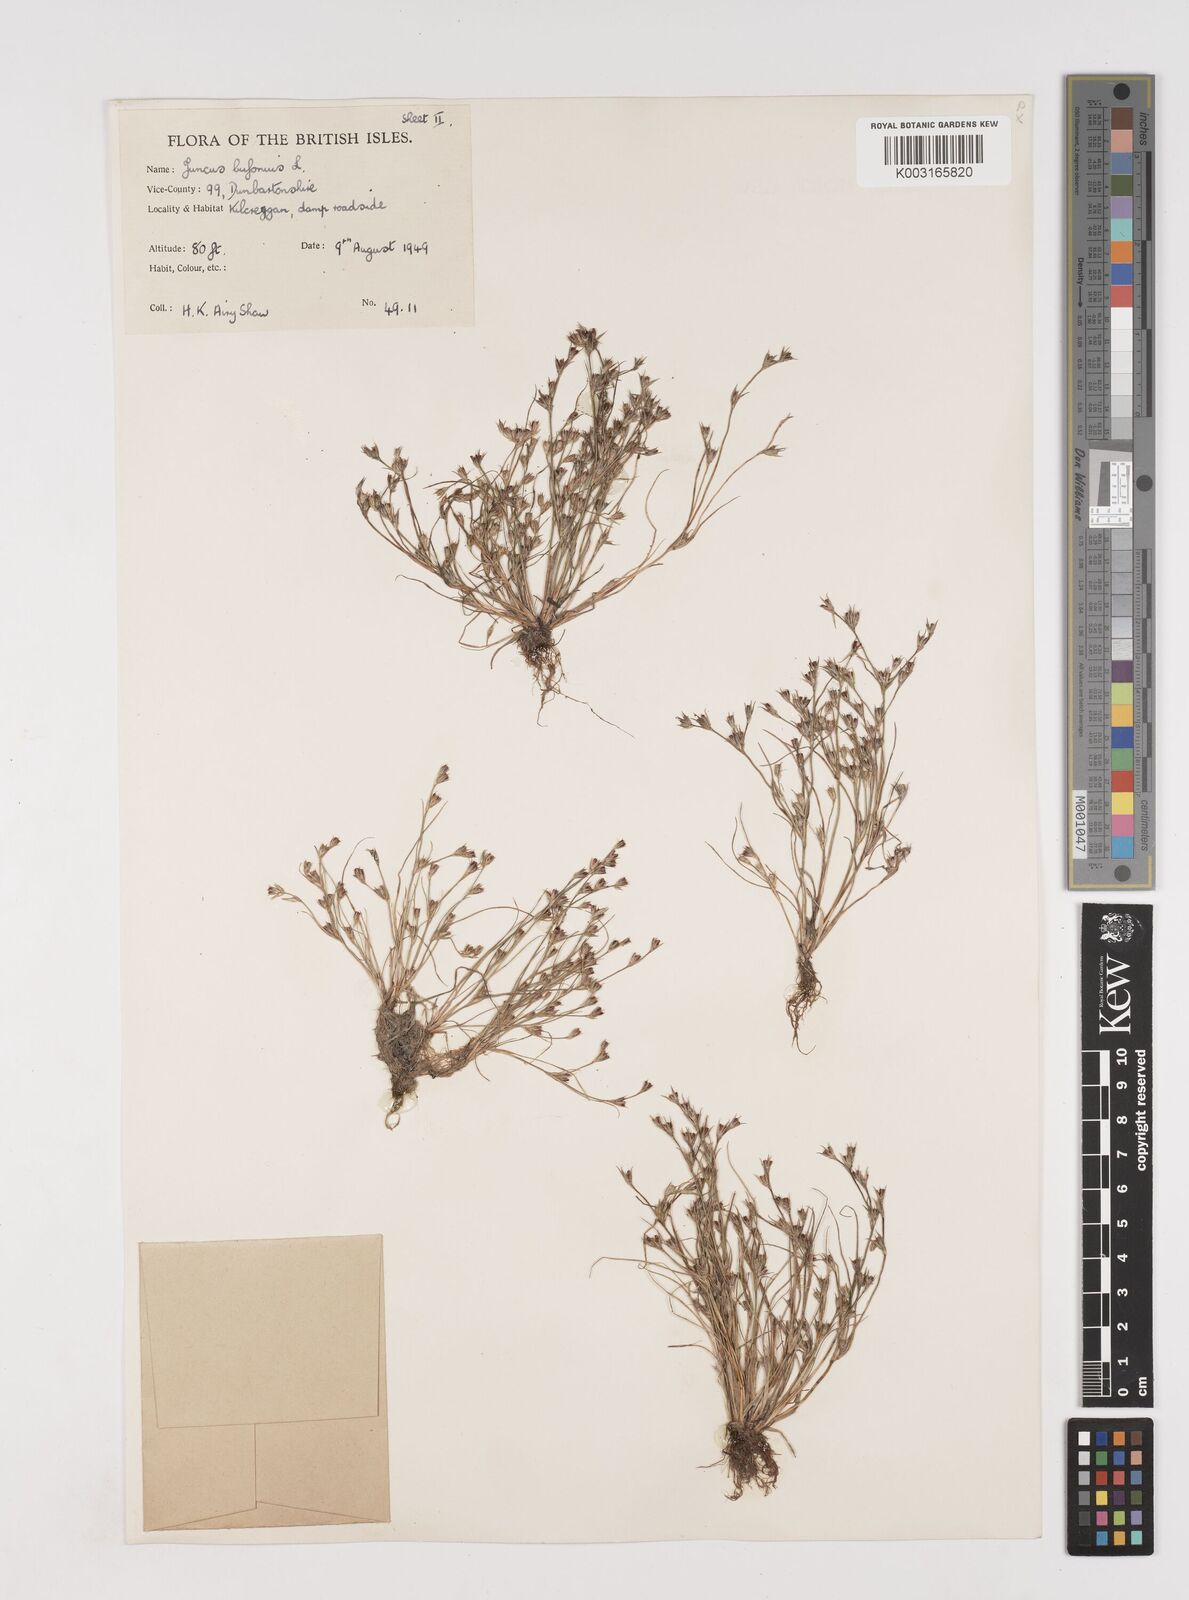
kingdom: Plantae
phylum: Tracheophyta
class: Liliopsida
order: Poales
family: Juncaceae
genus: Juncus
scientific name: Juncus bufonius
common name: Toad rush
